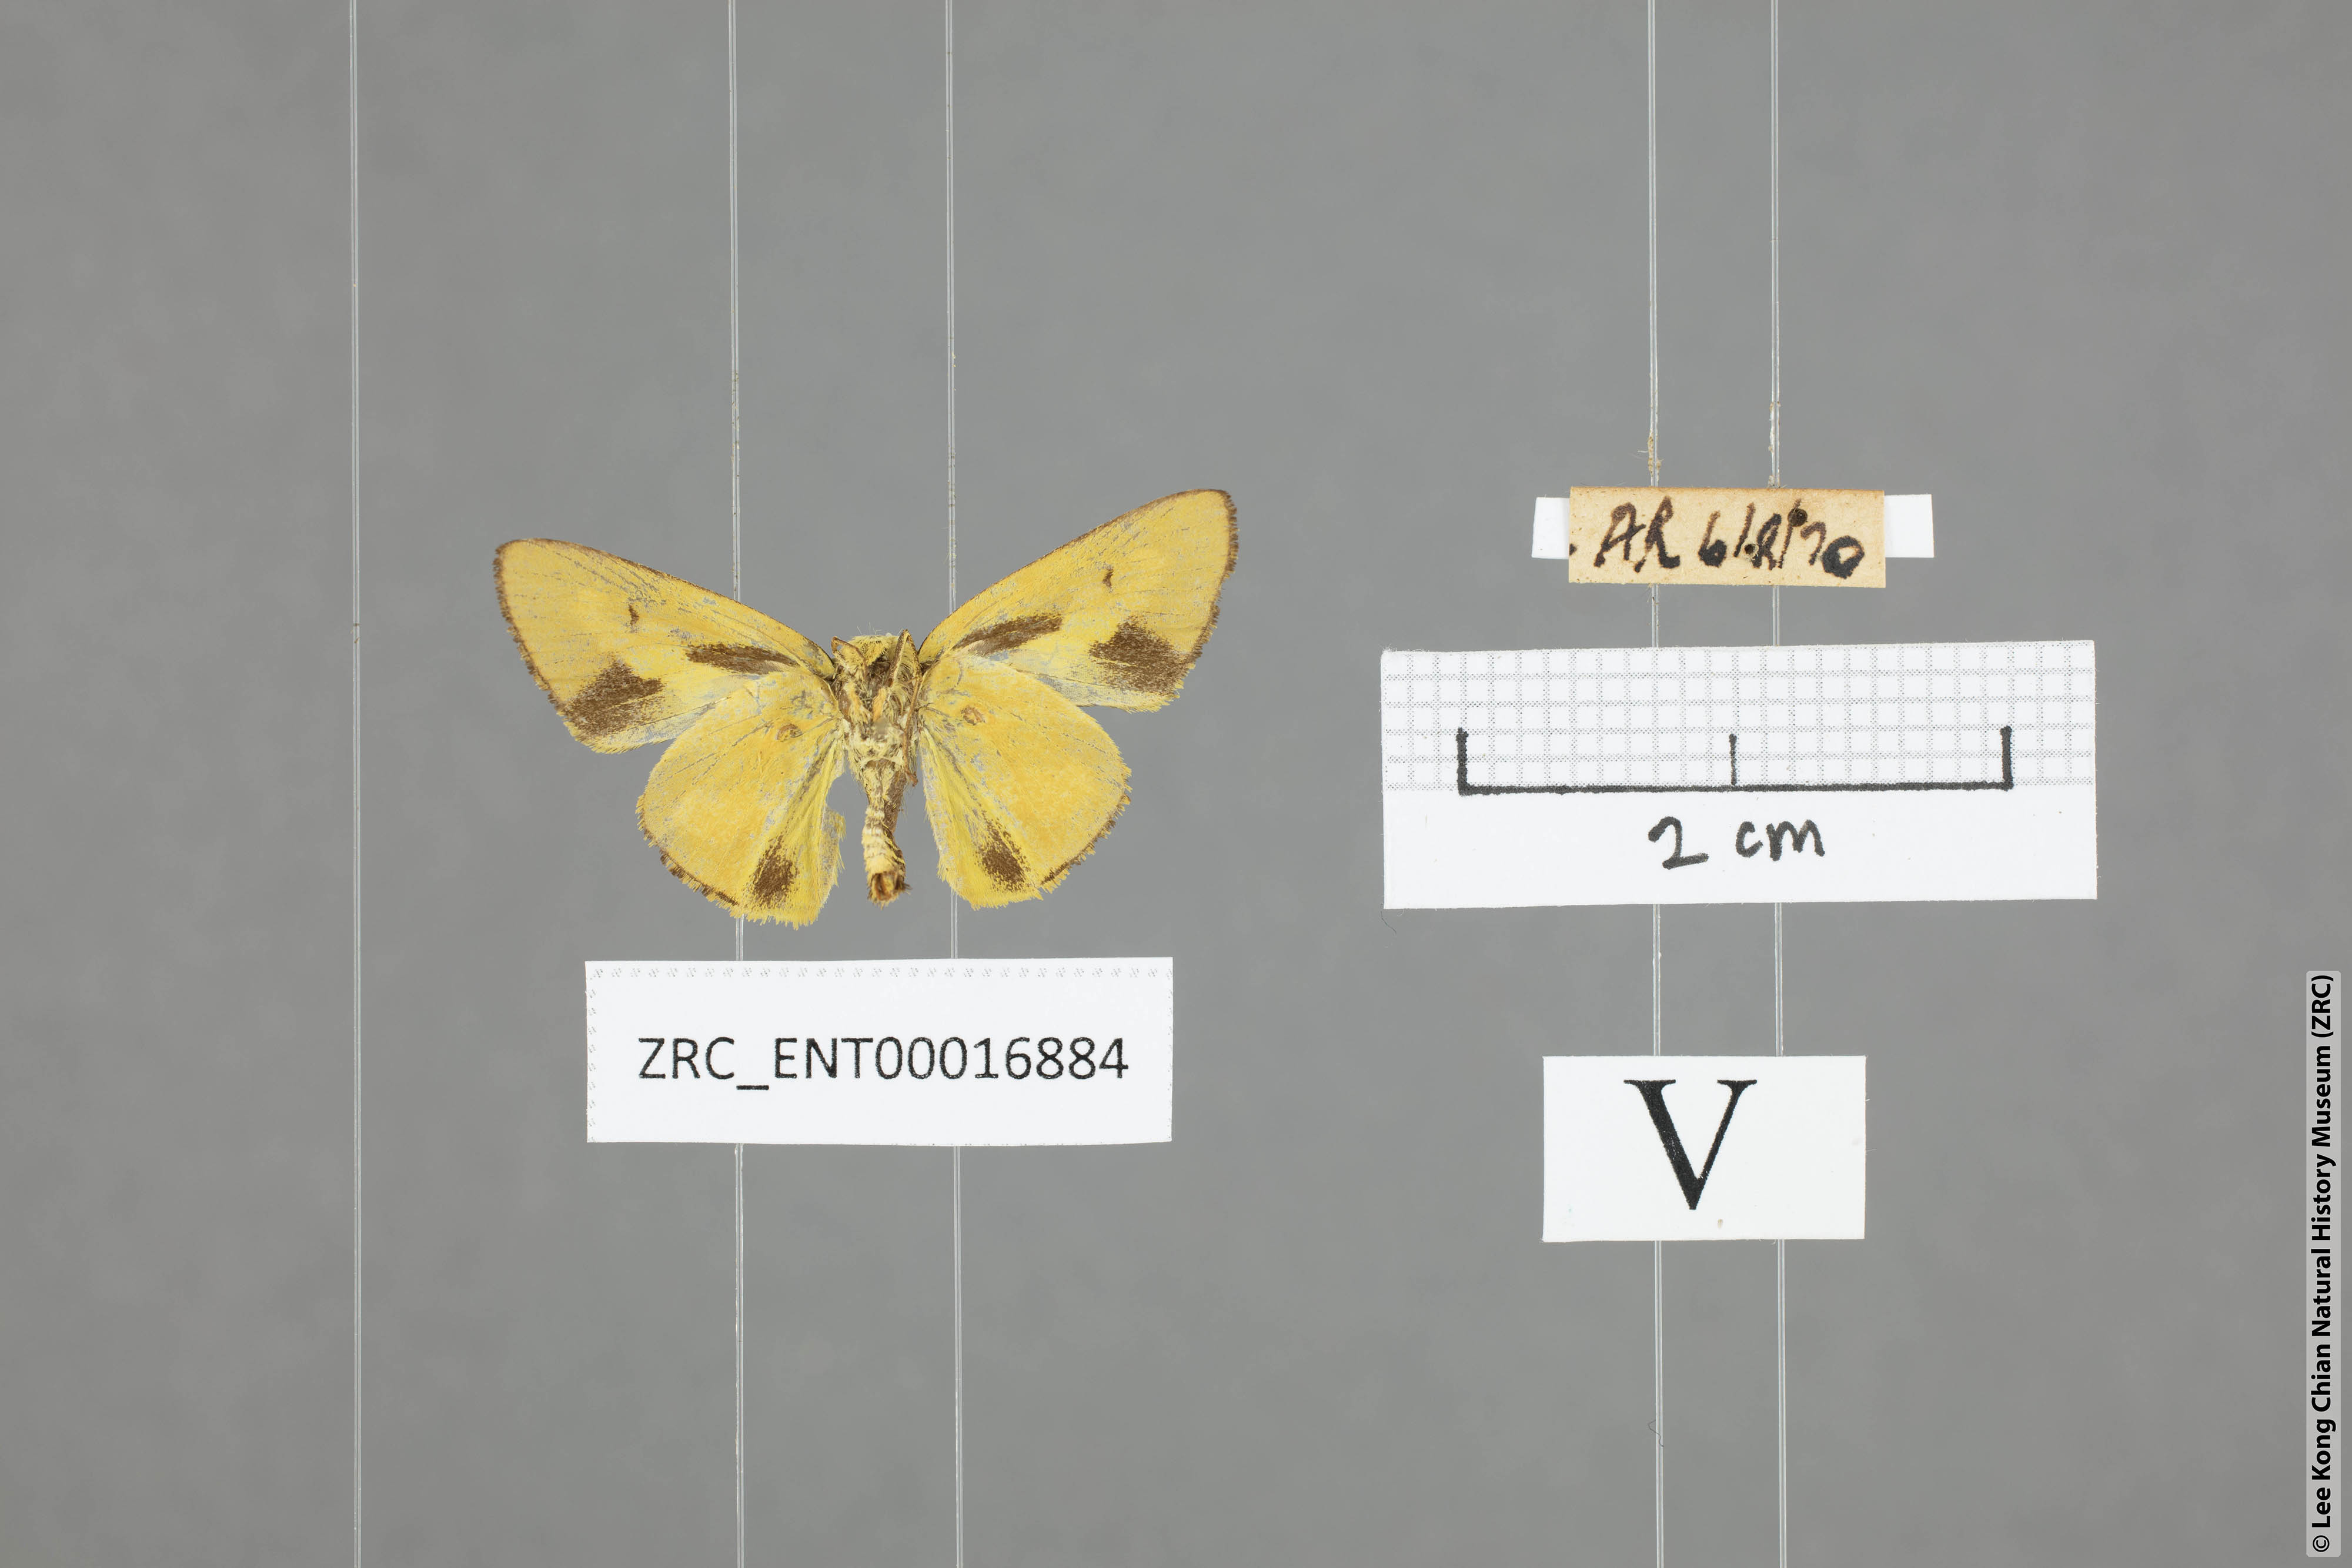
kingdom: Animalia
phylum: Arthropoda
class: Insecta
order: Lepidoptera
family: Hesperiidae
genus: Cupitha
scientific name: Cupitha purreea
